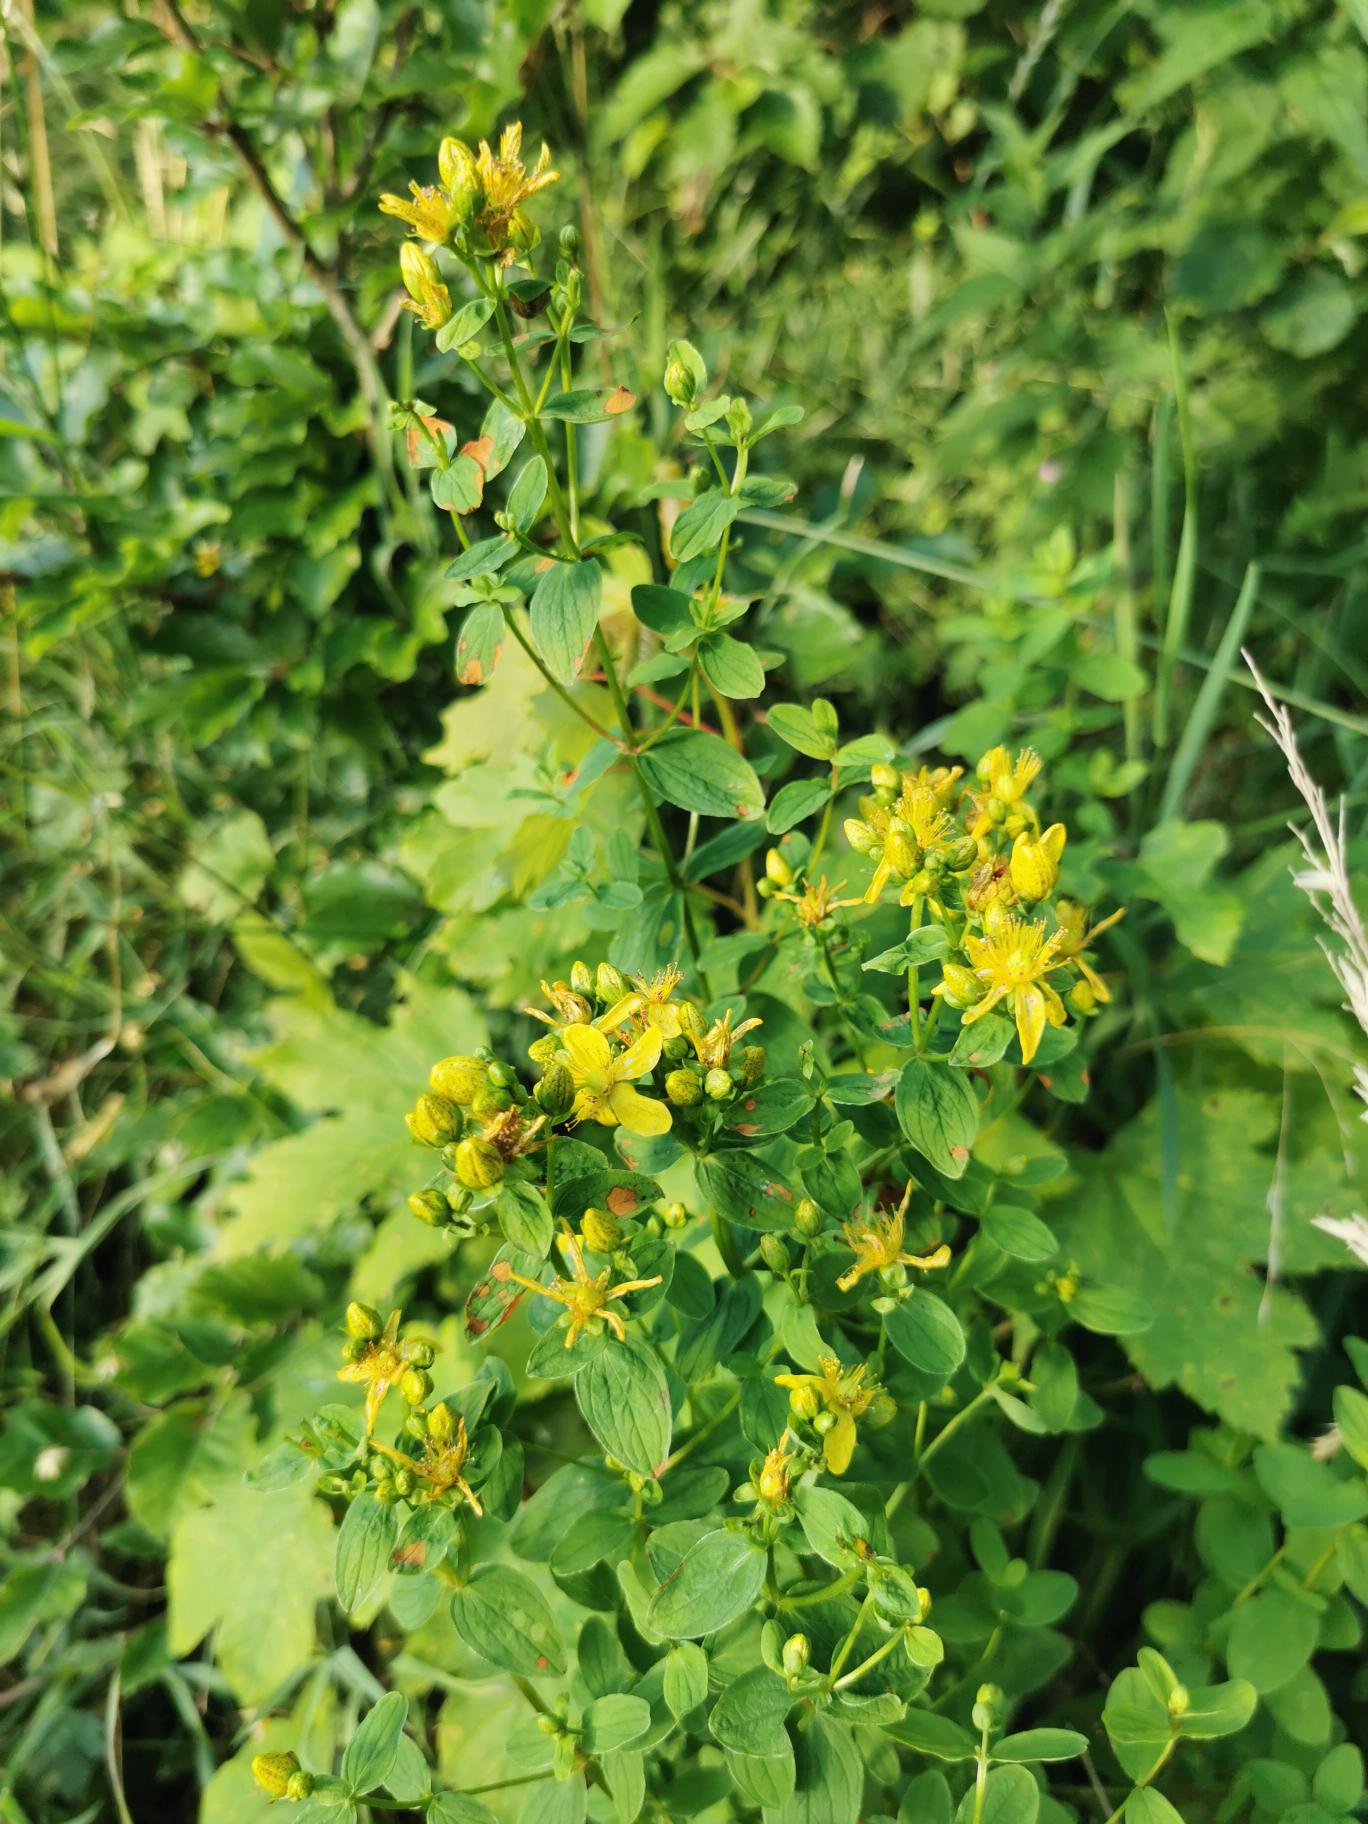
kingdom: Plantae
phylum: Tracheophyta
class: Magnoliopsida
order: Malpighiales
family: Hypericaceae
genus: Hypericum
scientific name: Hypericum maculatum
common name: Kantet perikon
